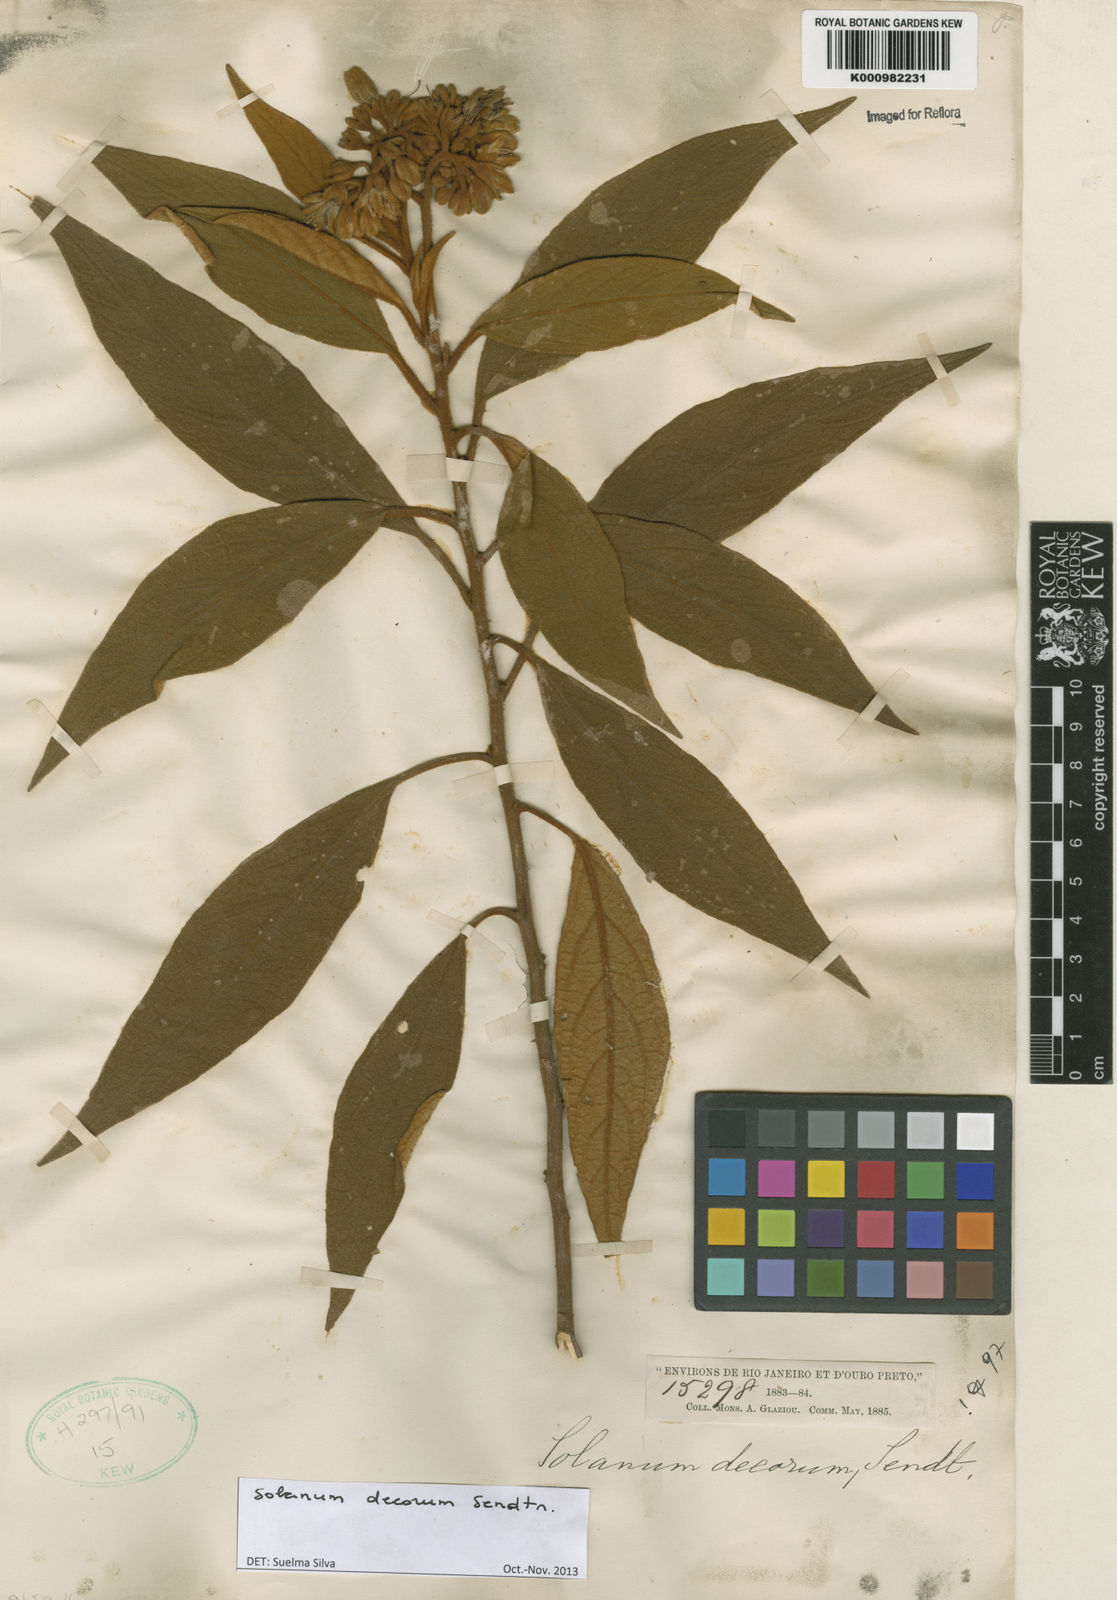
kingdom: Plantae
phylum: Tracheophyta
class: Magnoliopsida
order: Solanales
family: Solanaceae
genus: Solanum
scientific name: Solanum decorum
